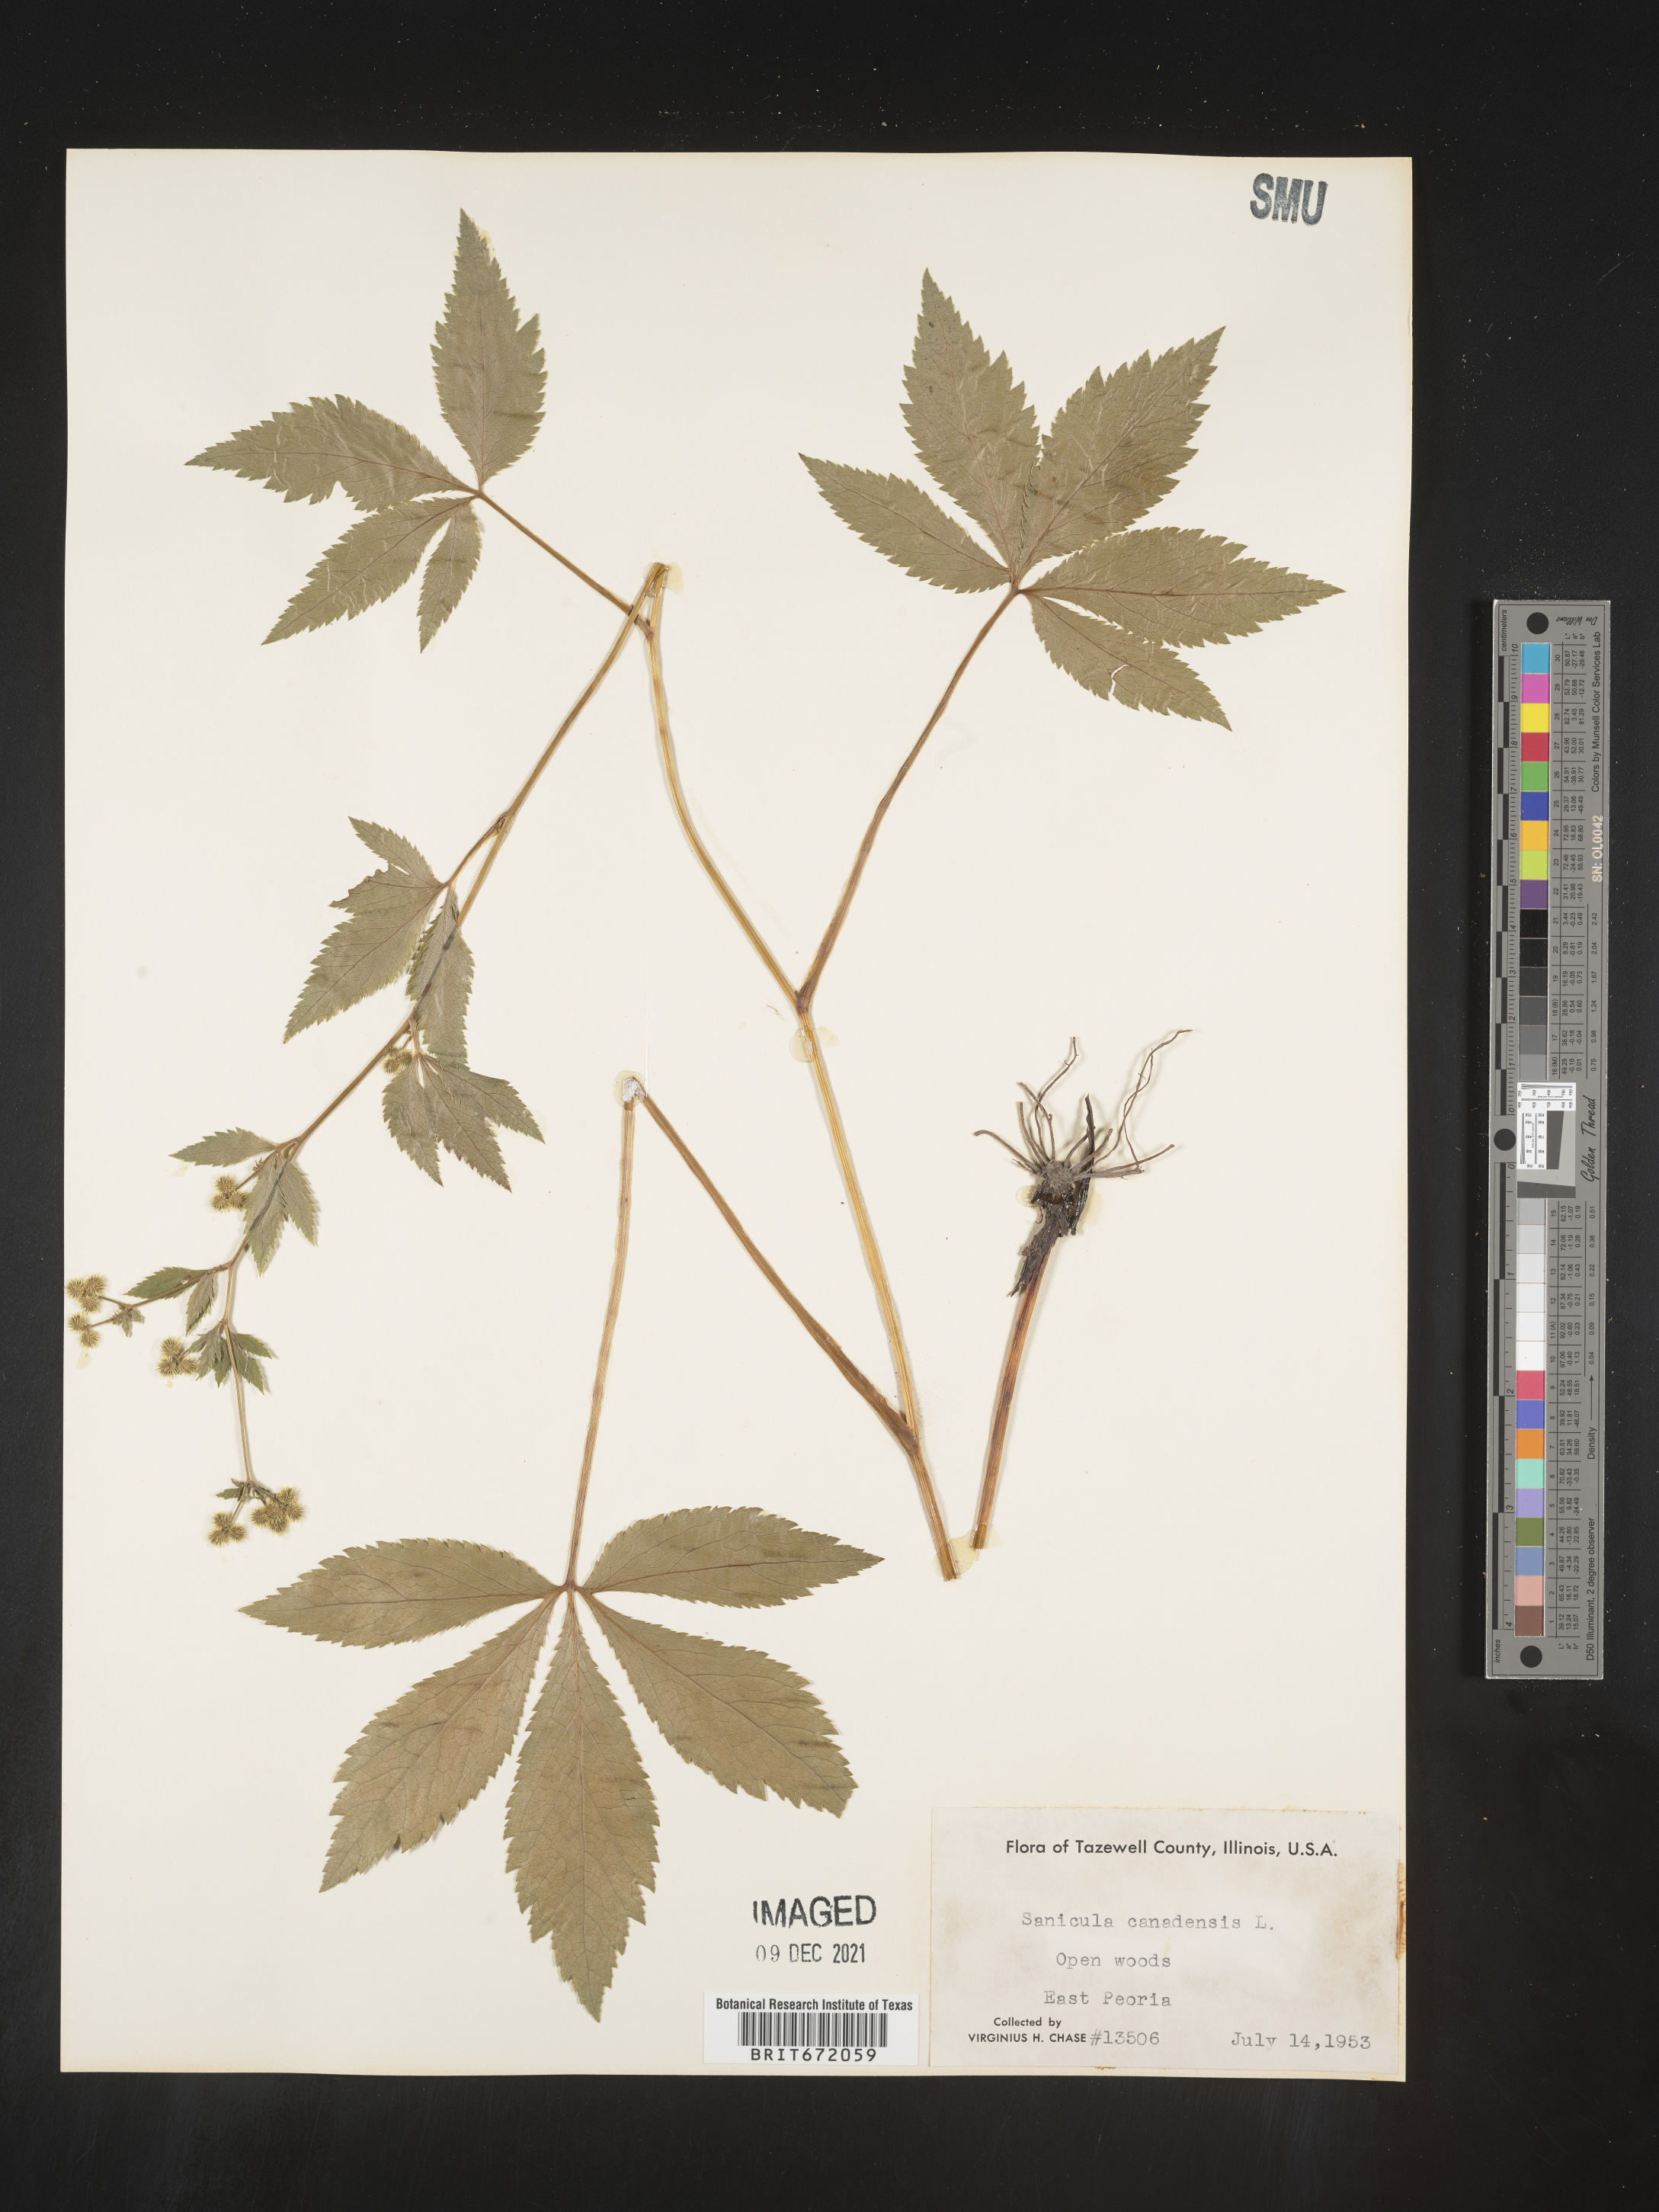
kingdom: Plantae
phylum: Tracheophyta
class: Magnoliopsida
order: Apiales
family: Apiaceae
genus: Sanicula
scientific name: Sanicula canadensis
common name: Canada sanicle
